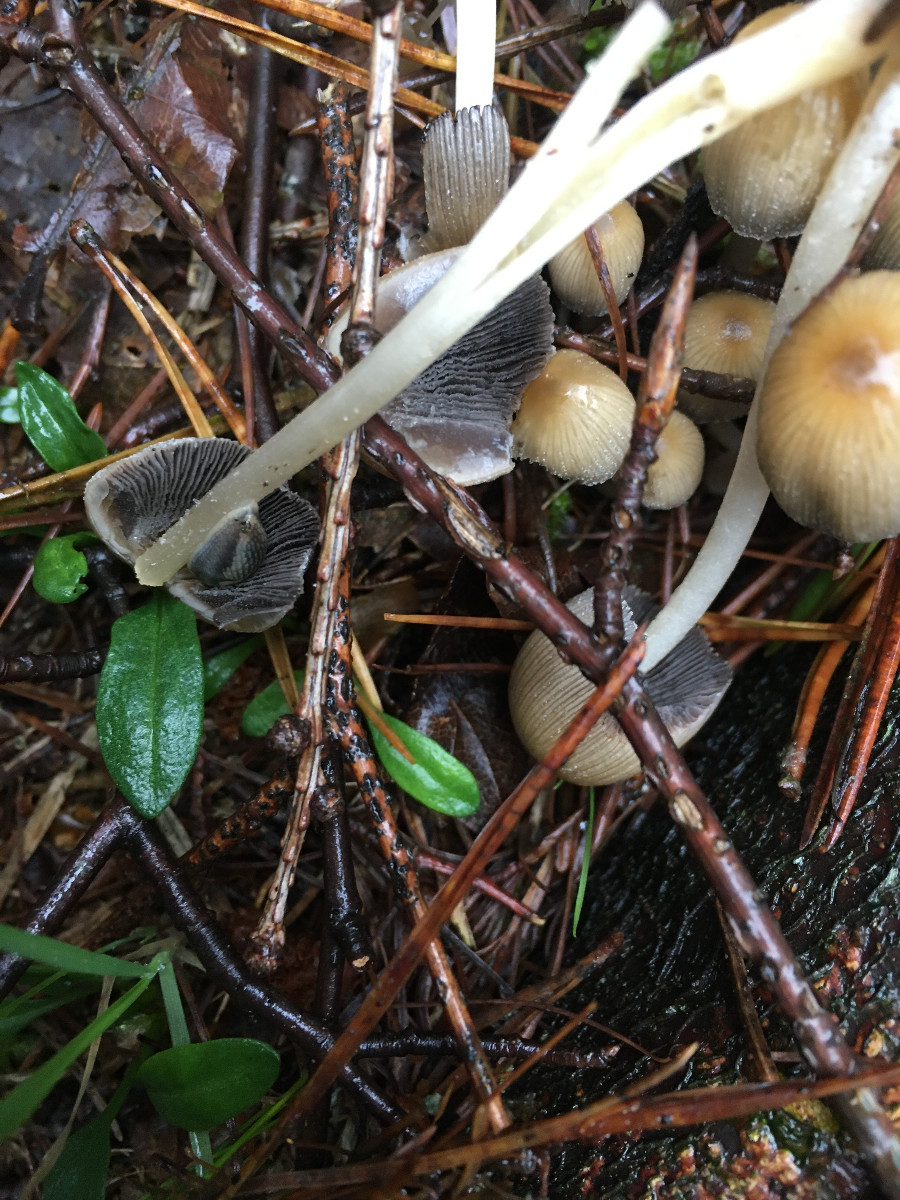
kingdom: Fungi
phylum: Basidiomycota
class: Agaricomycetes
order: Agaricales
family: Psathyrellaceae
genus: Coprinellus
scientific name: Coprinellus micaceus
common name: glimmer-blækhat
